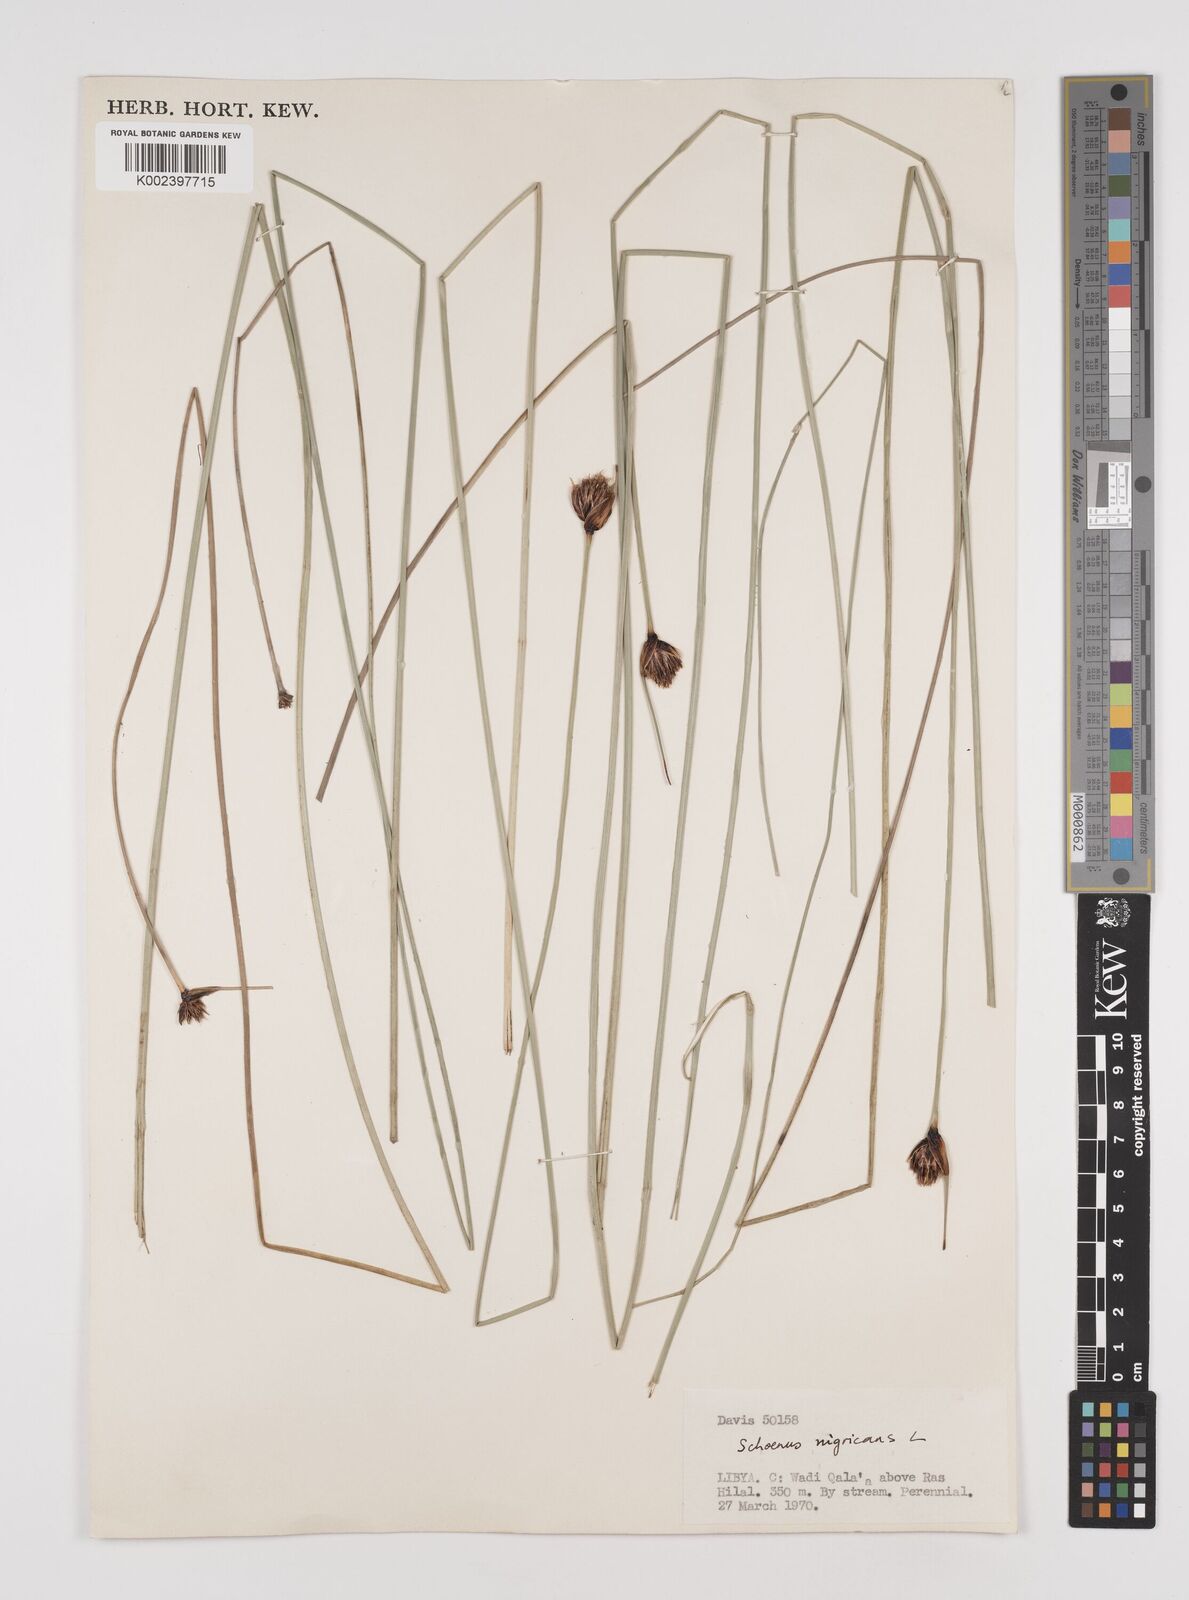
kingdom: Plantae
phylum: Tracheophyta
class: Liliopsida
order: Poales
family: Cyperaceae
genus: Schoenus
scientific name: Schoenus nigricans
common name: Black bog-rush
